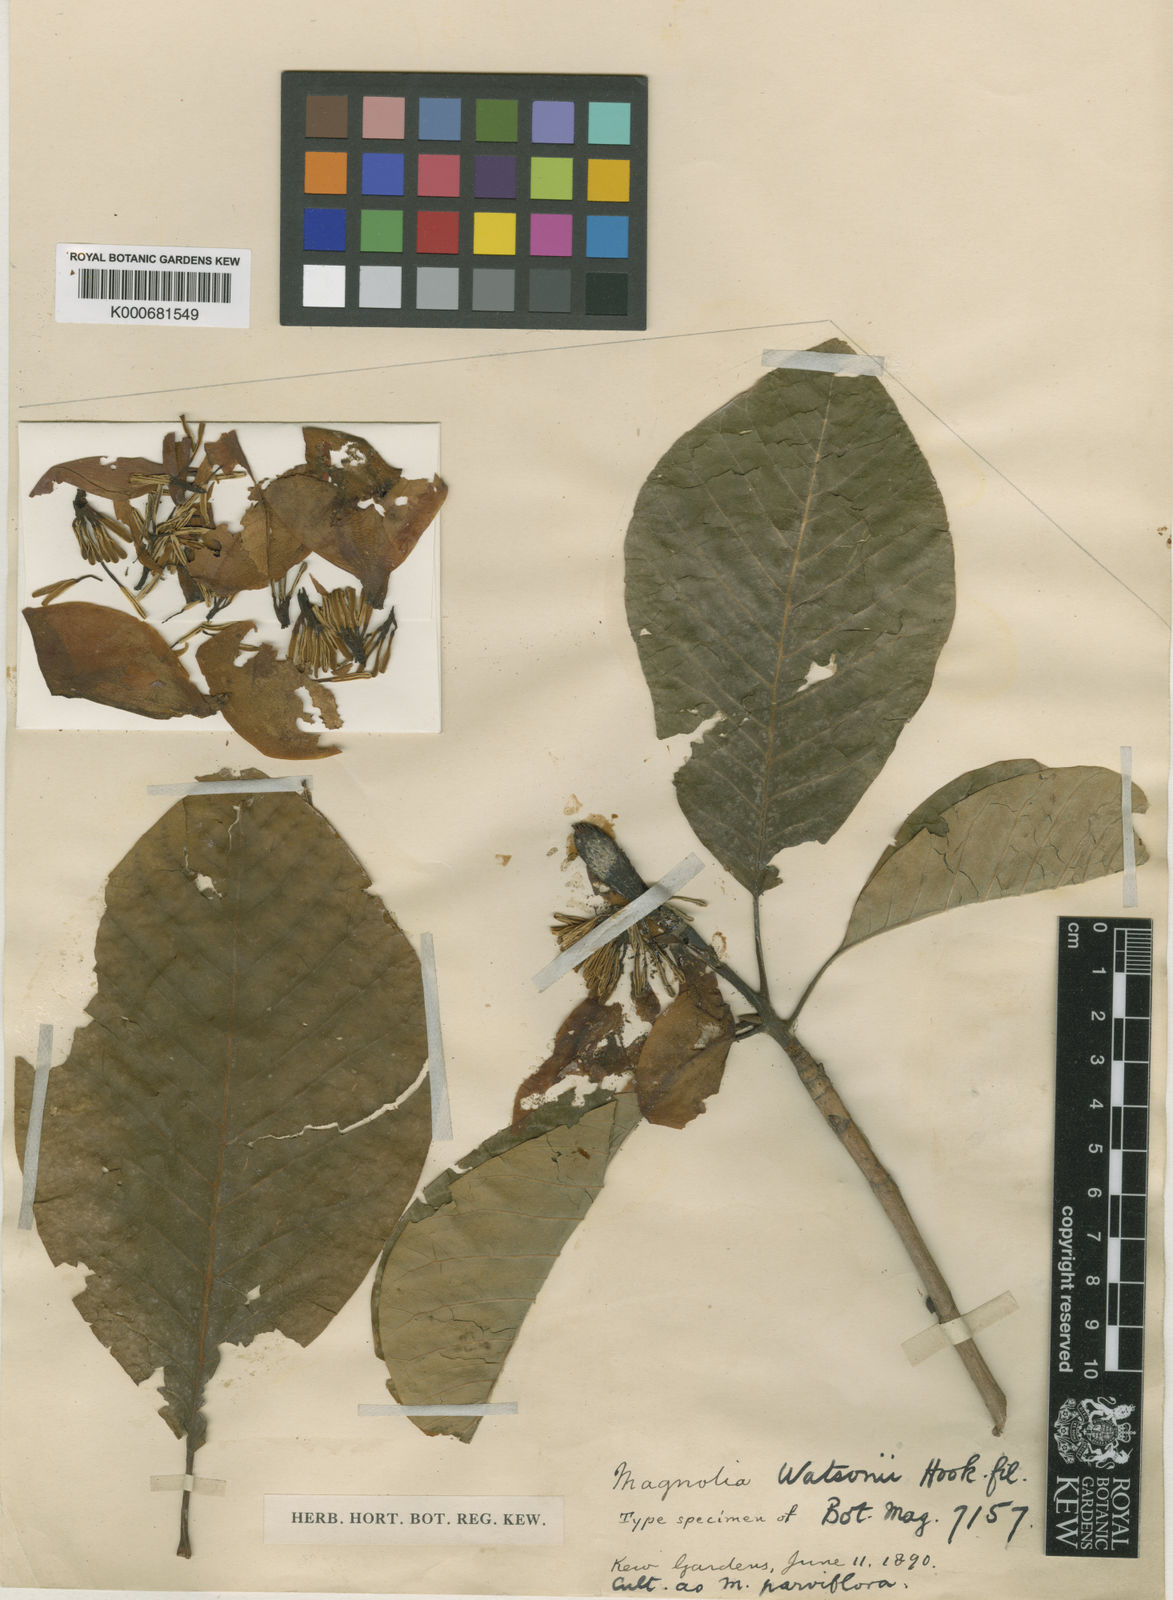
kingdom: Plantae
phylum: Tracheophyta
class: Magnoliopsida
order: Magnoliales
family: Magnoliaceae
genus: Magnolia
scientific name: Magnolia
